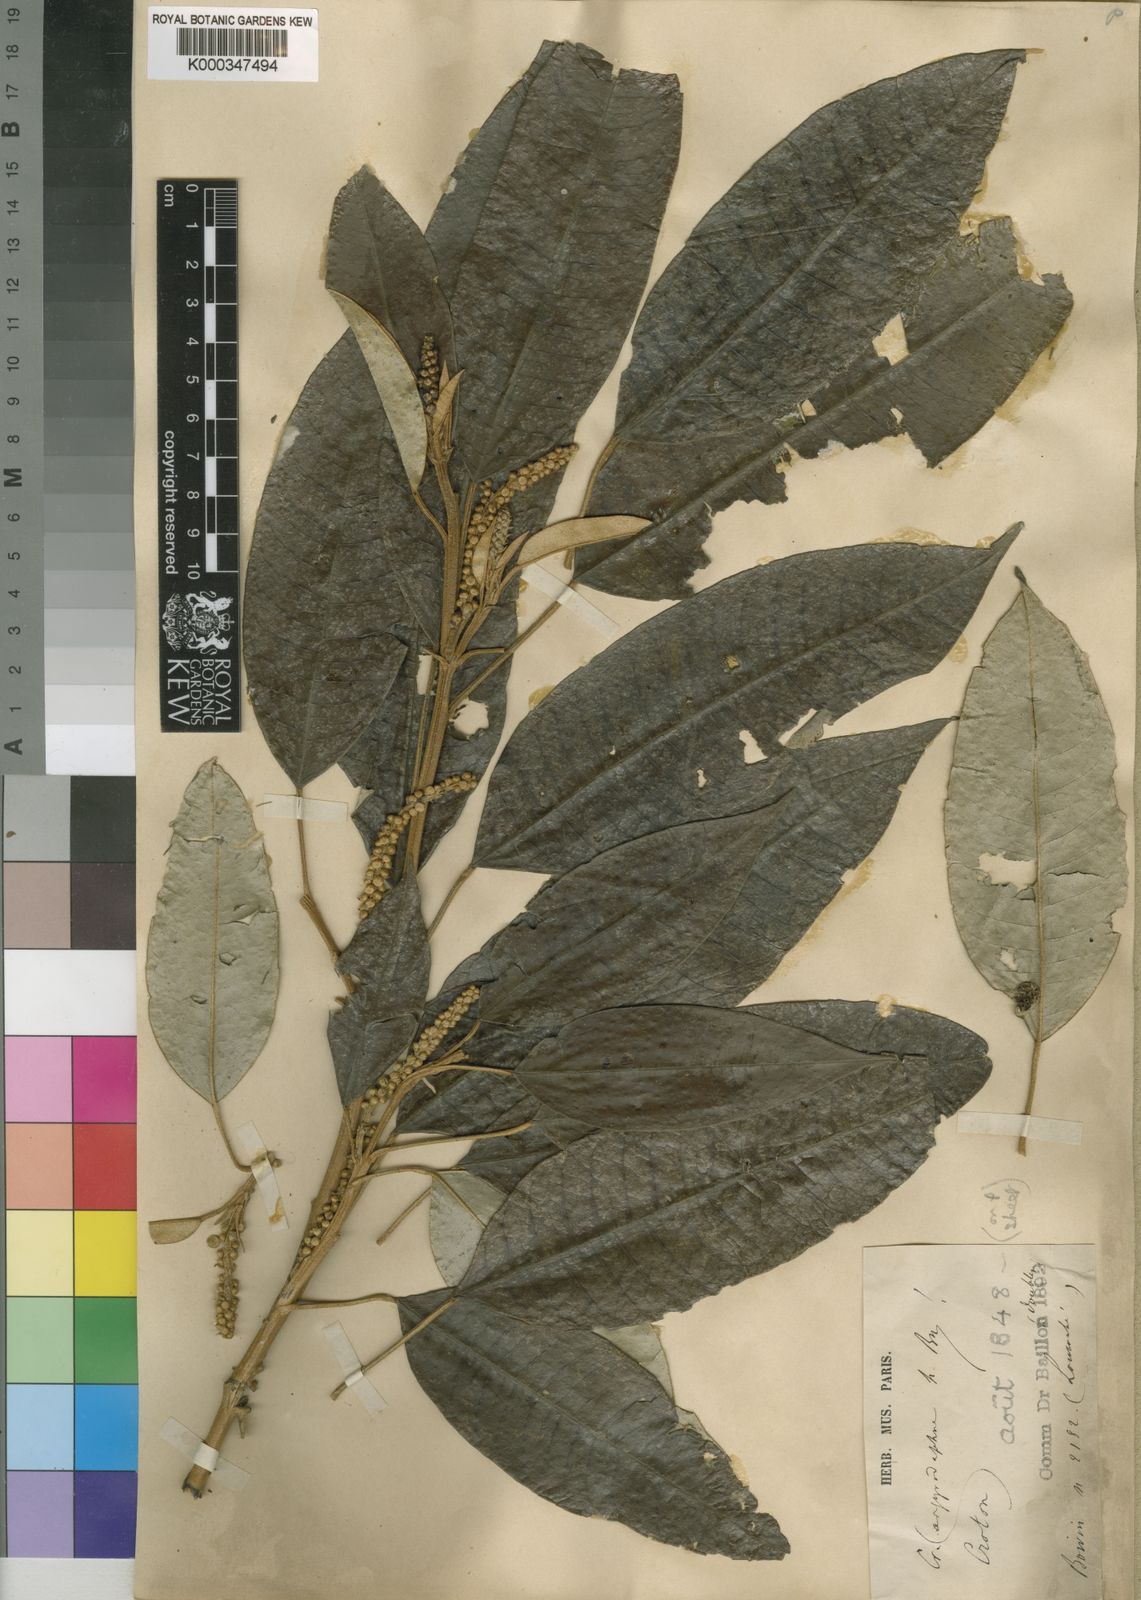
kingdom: Plantae
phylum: Tracheophyta
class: Magnoliopsida
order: Malpighiales
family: Euphorbiaceae
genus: Croton
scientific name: Croton argyrodaphne
